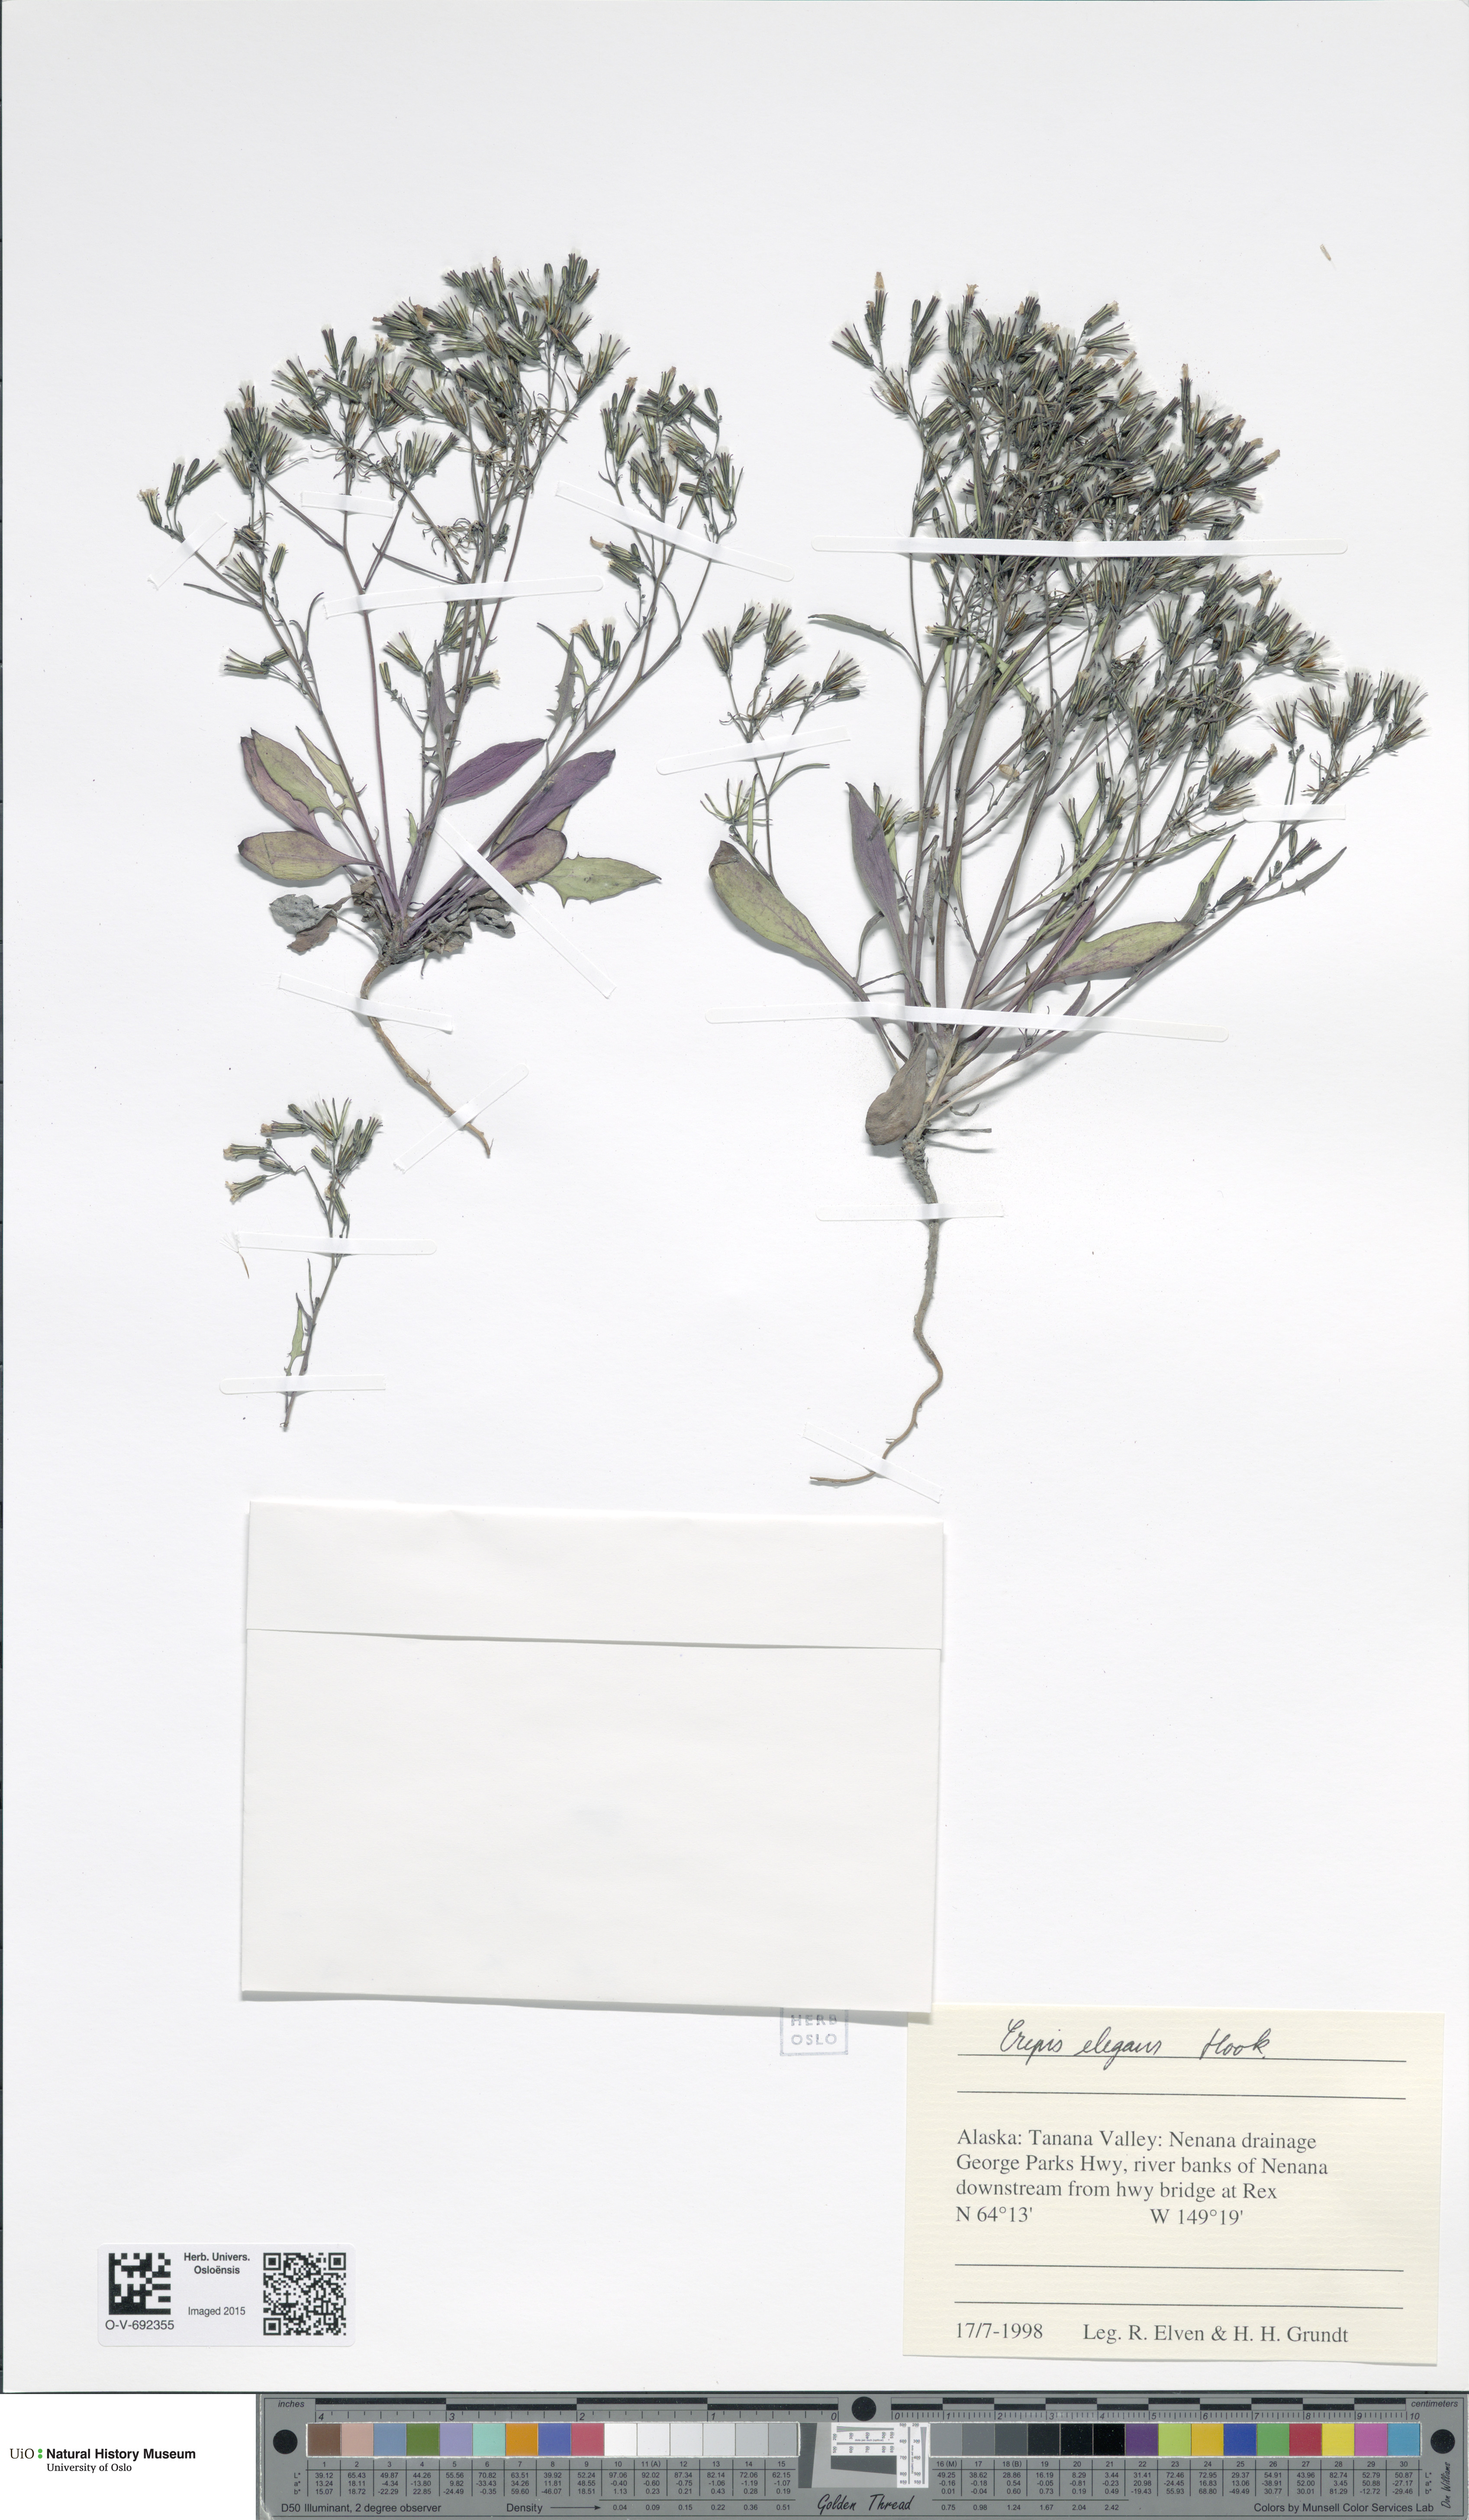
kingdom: Plantae
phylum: Tracheophyta
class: Magnoliopsida
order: Asterales
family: Asteraceae
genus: Askellia
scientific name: Askellia elegans
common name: Elegant hawksbeard
